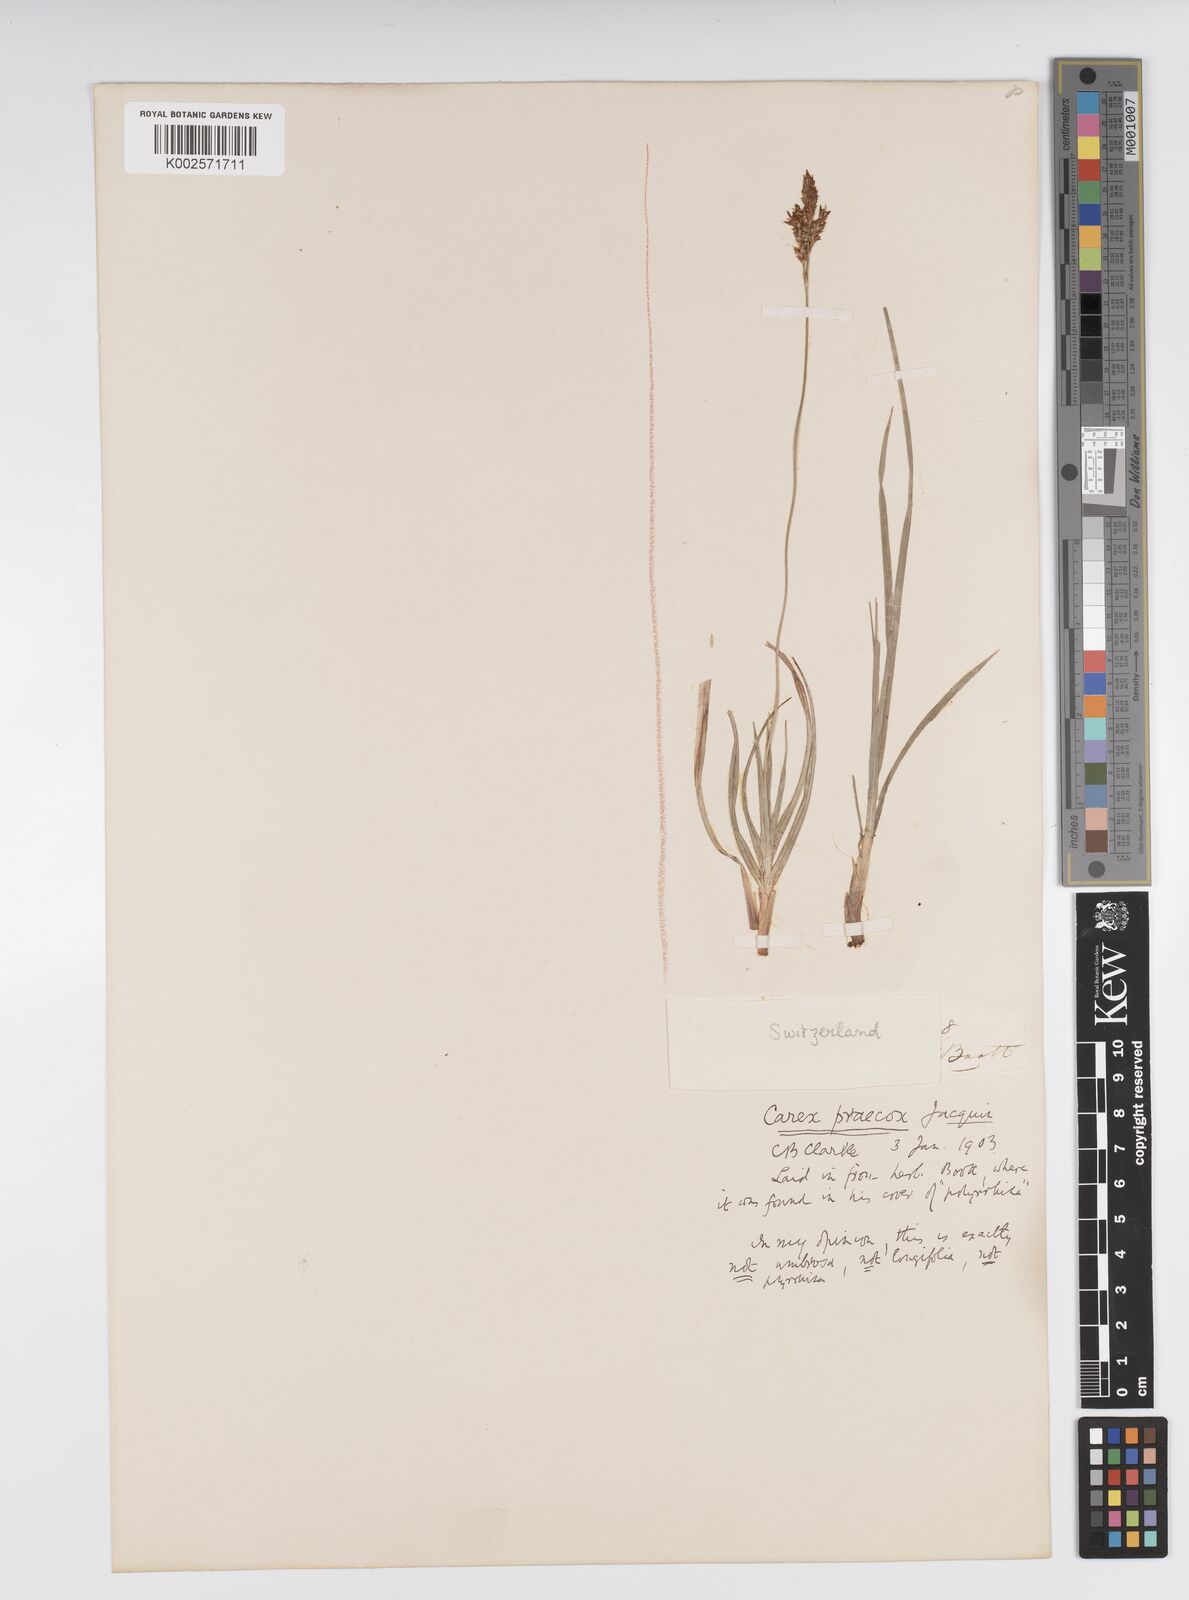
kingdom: Plantae
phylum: Tracheophyta
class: Liliopsida
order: Poales
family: Cyperaceae
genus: Carex
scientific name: Carex caryophyllea
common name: Spring sedge
